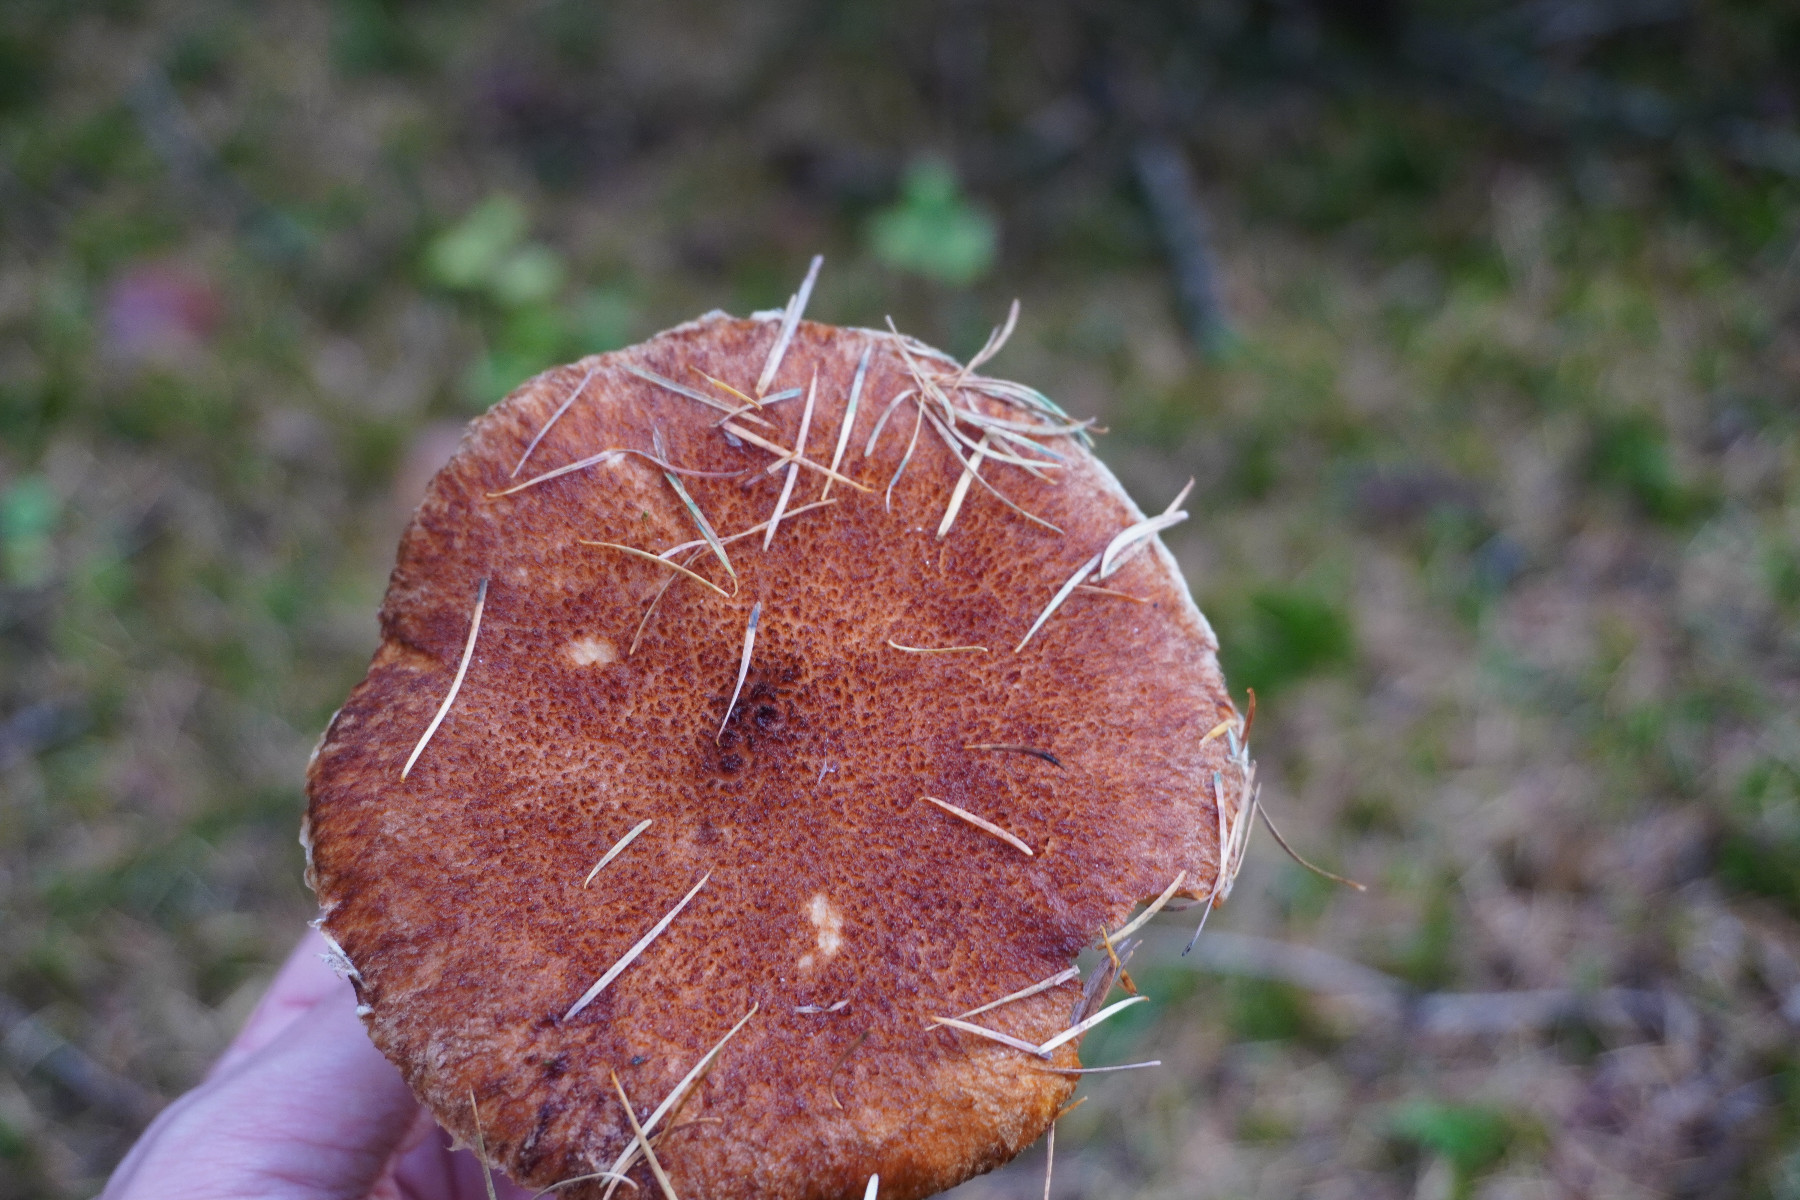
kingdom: Fungi
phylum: Basidiomycota
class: Agaricomycetes
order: Boletales
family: Suillaceae
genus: Suillus
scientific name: Suillus cavipes
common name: hulstokket slimrørhat
